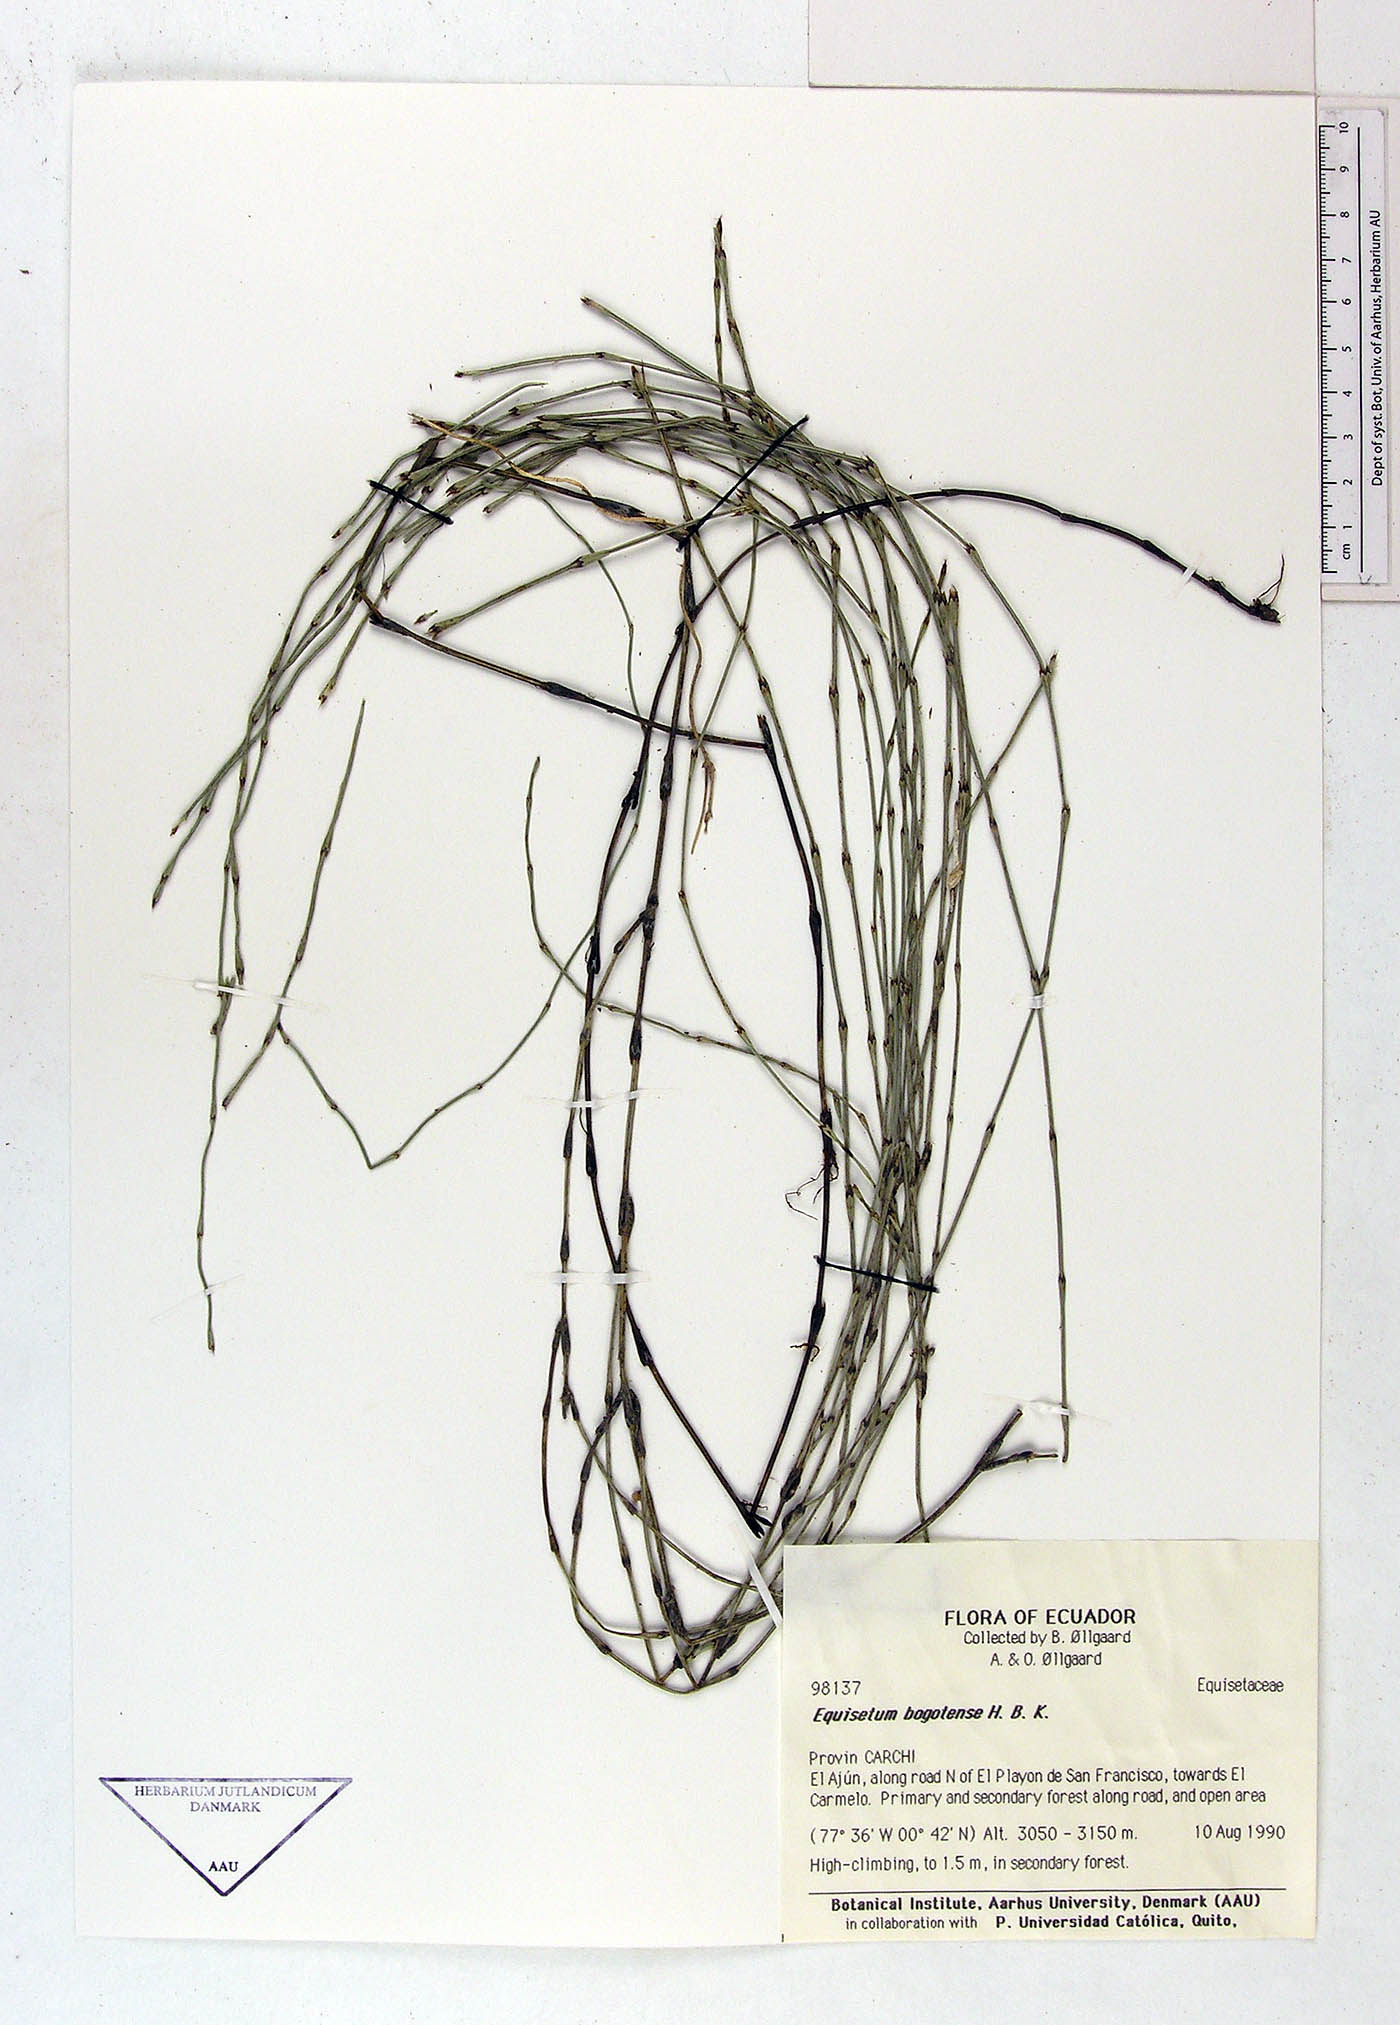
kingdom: Plantae
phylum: Tracheophyta
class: Polypodiopsida
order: Equisetales
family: Equisetaceae
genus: Equisetum
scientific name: Equisetum bogotense
